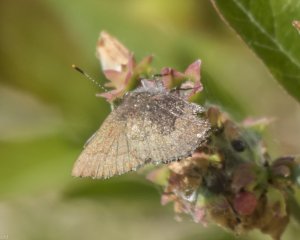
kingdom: Animalia
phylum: Arthropoda
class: Insecta
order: Lepidoptera
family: Lycaenidae
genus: Incisalia
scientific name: Incisalia irioides
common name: Brown Elfin
